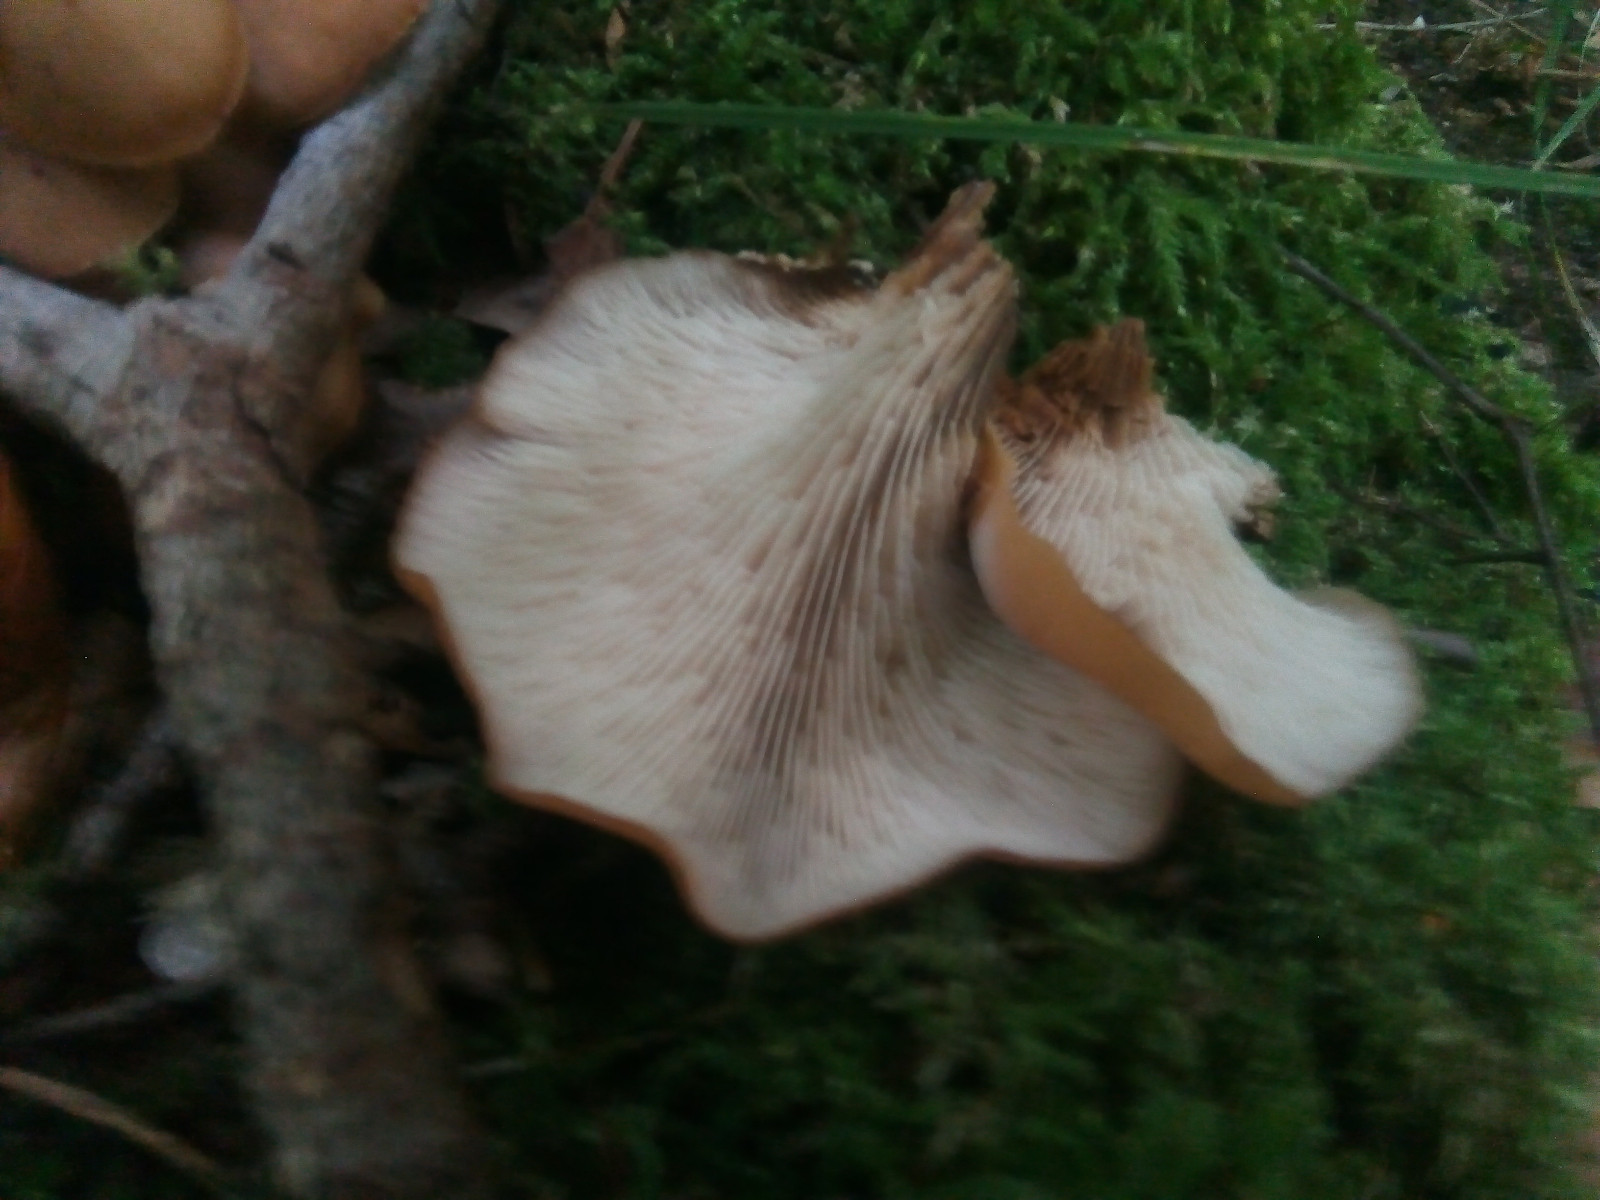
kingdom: Fungi
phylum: Basidiomycota
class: Agaricomycetes
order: Russulales
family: Auriscalpiaceae
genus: Lentinellus
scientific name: Lentinellus cochleatus
